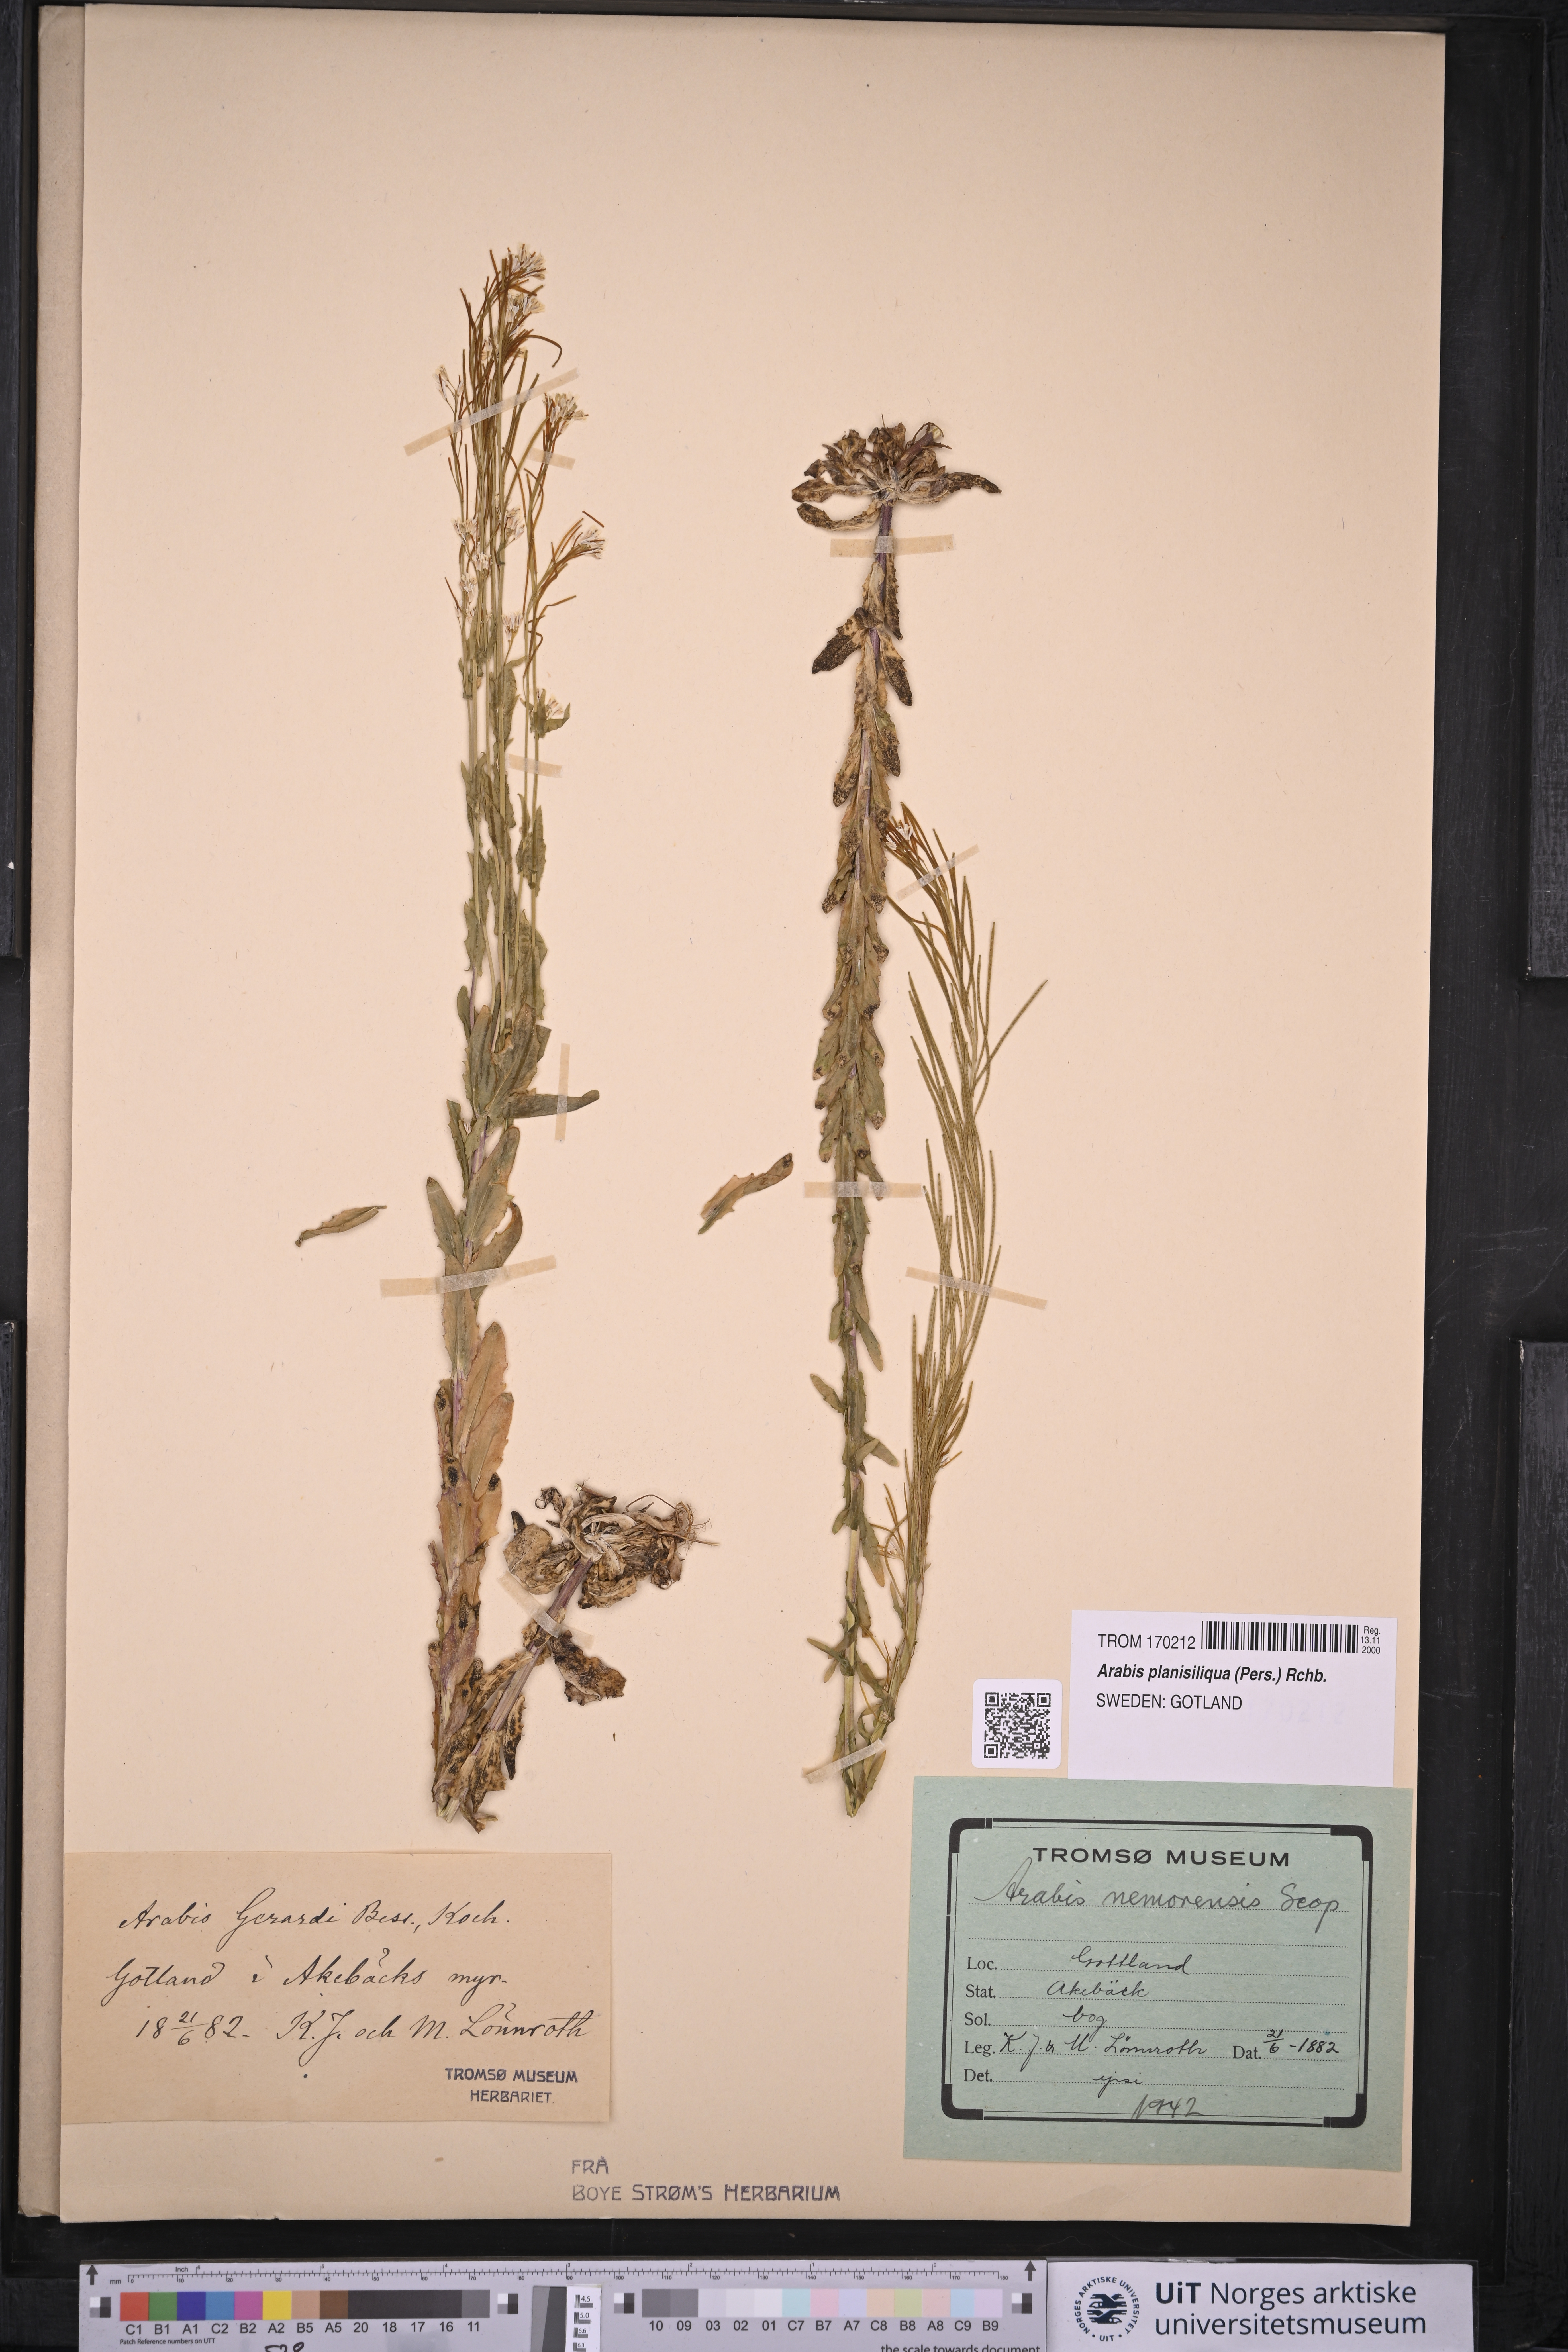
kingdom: Plantae
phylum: Tracheophyta
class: Magnoliopsida
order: Brassicales
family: Brassicaceae
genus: Arabis
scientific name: Arabis planisiliqua
